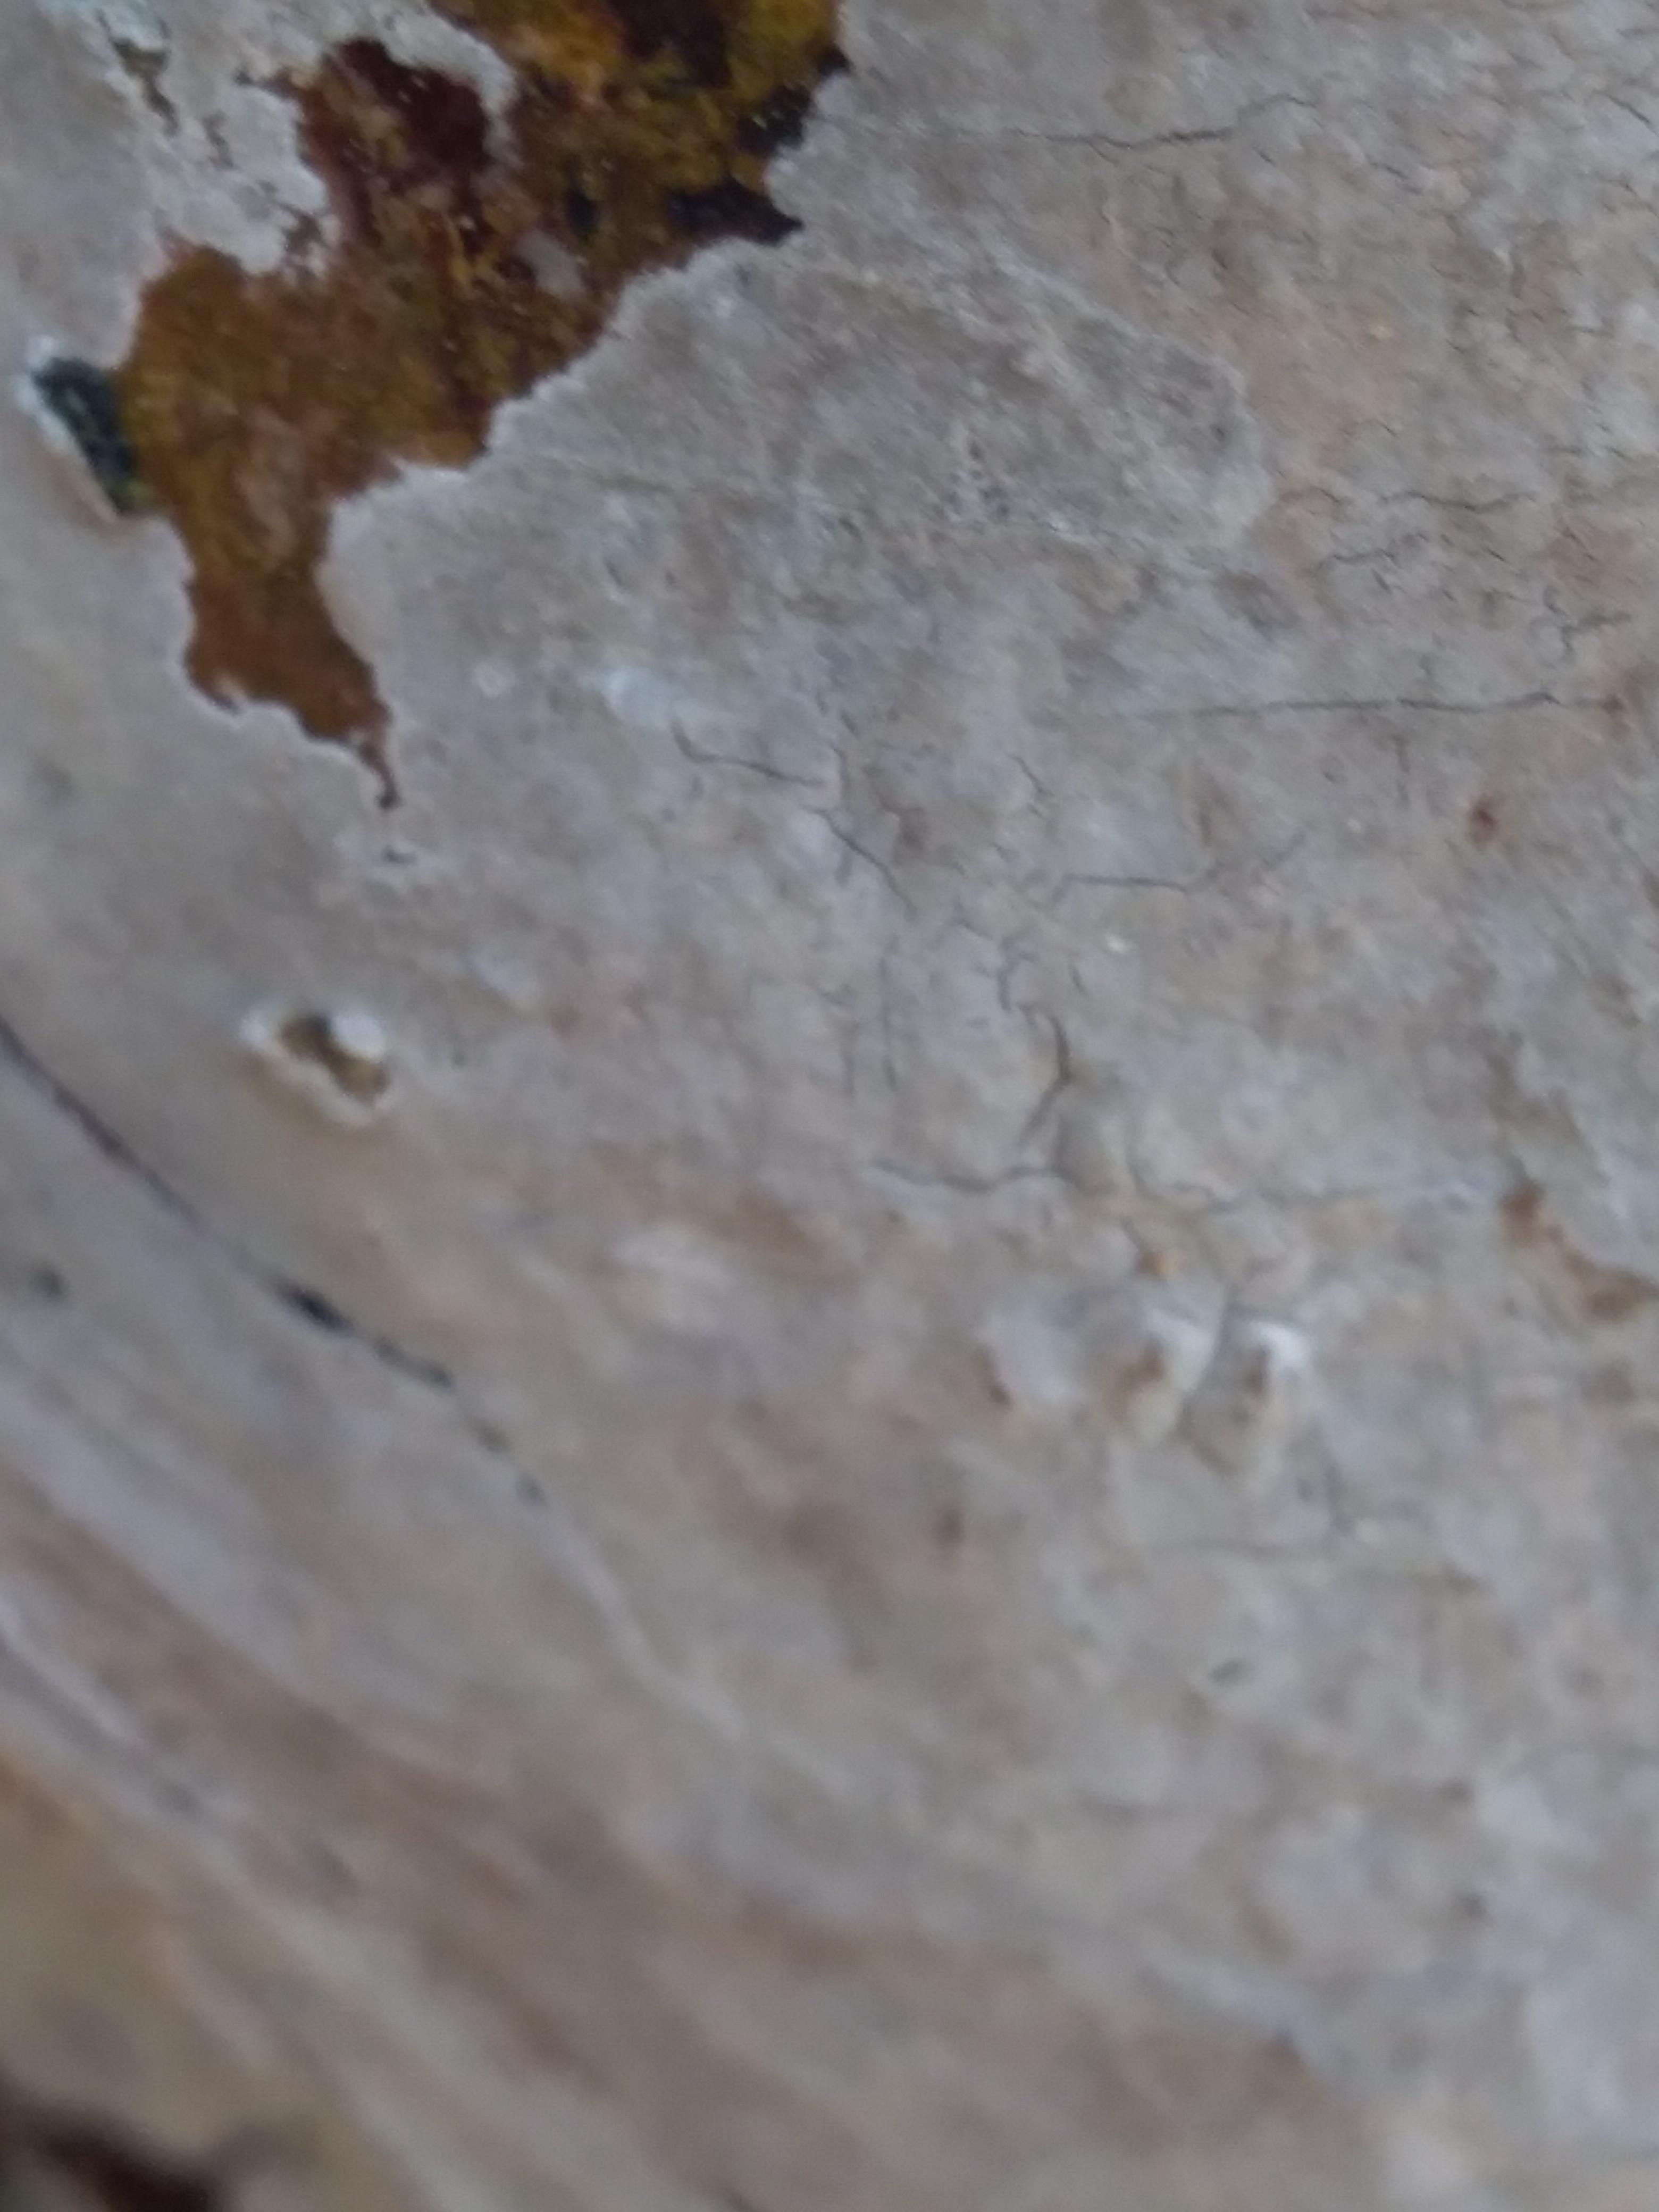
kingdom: Fungi
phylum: Basidiomycota
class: Agaricomycetes
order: Corticiales
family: Corticiaceae
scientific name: Corticiaceae
